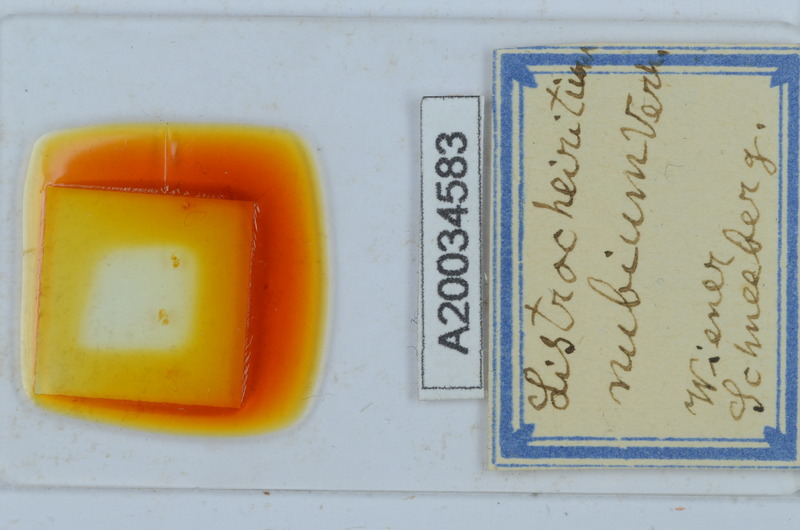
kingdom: Animalia
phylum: Arthropoda
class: Diplopoda
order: Chordeumatida
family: Craspedosomatidae
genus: Listrocheiritium
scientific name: Listrocheiritium nubium
